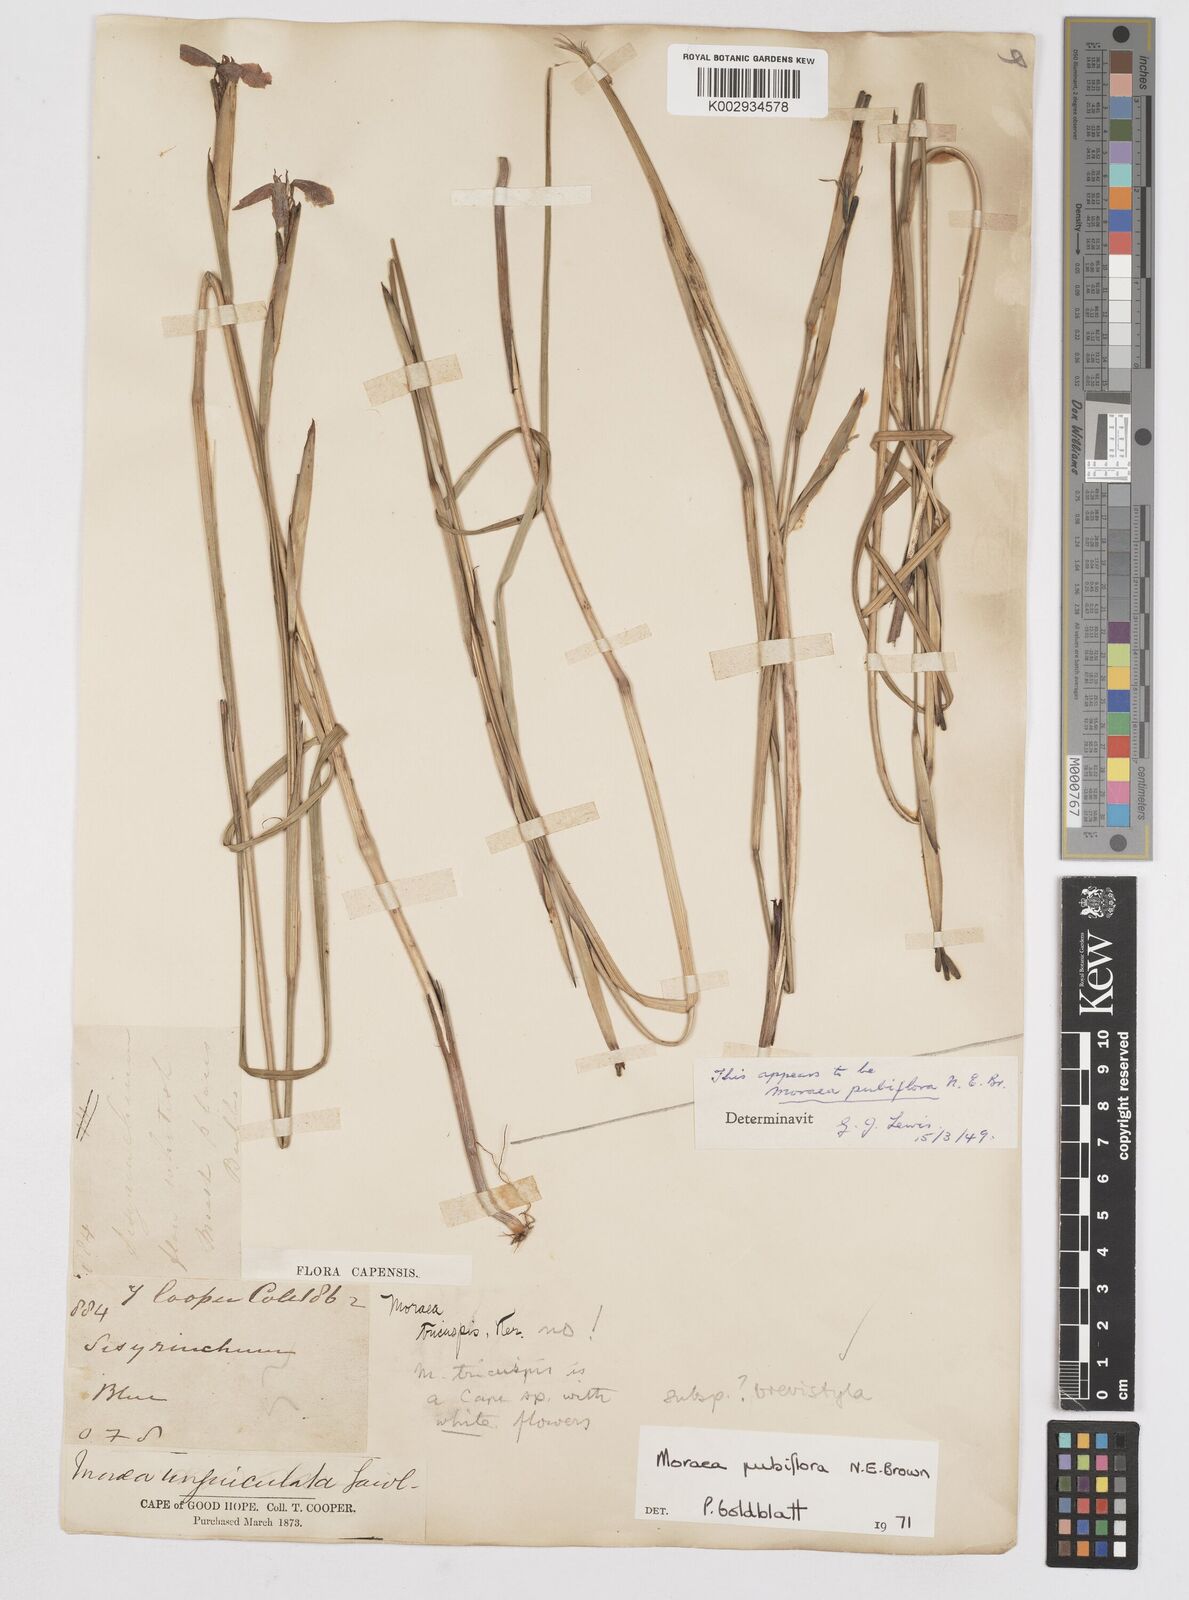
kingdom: Plantae
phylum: Tracheophyta
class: Liliopsida
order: Asparagales
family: Iridaceae
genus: Moraea
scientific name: Moraea brevistyla
